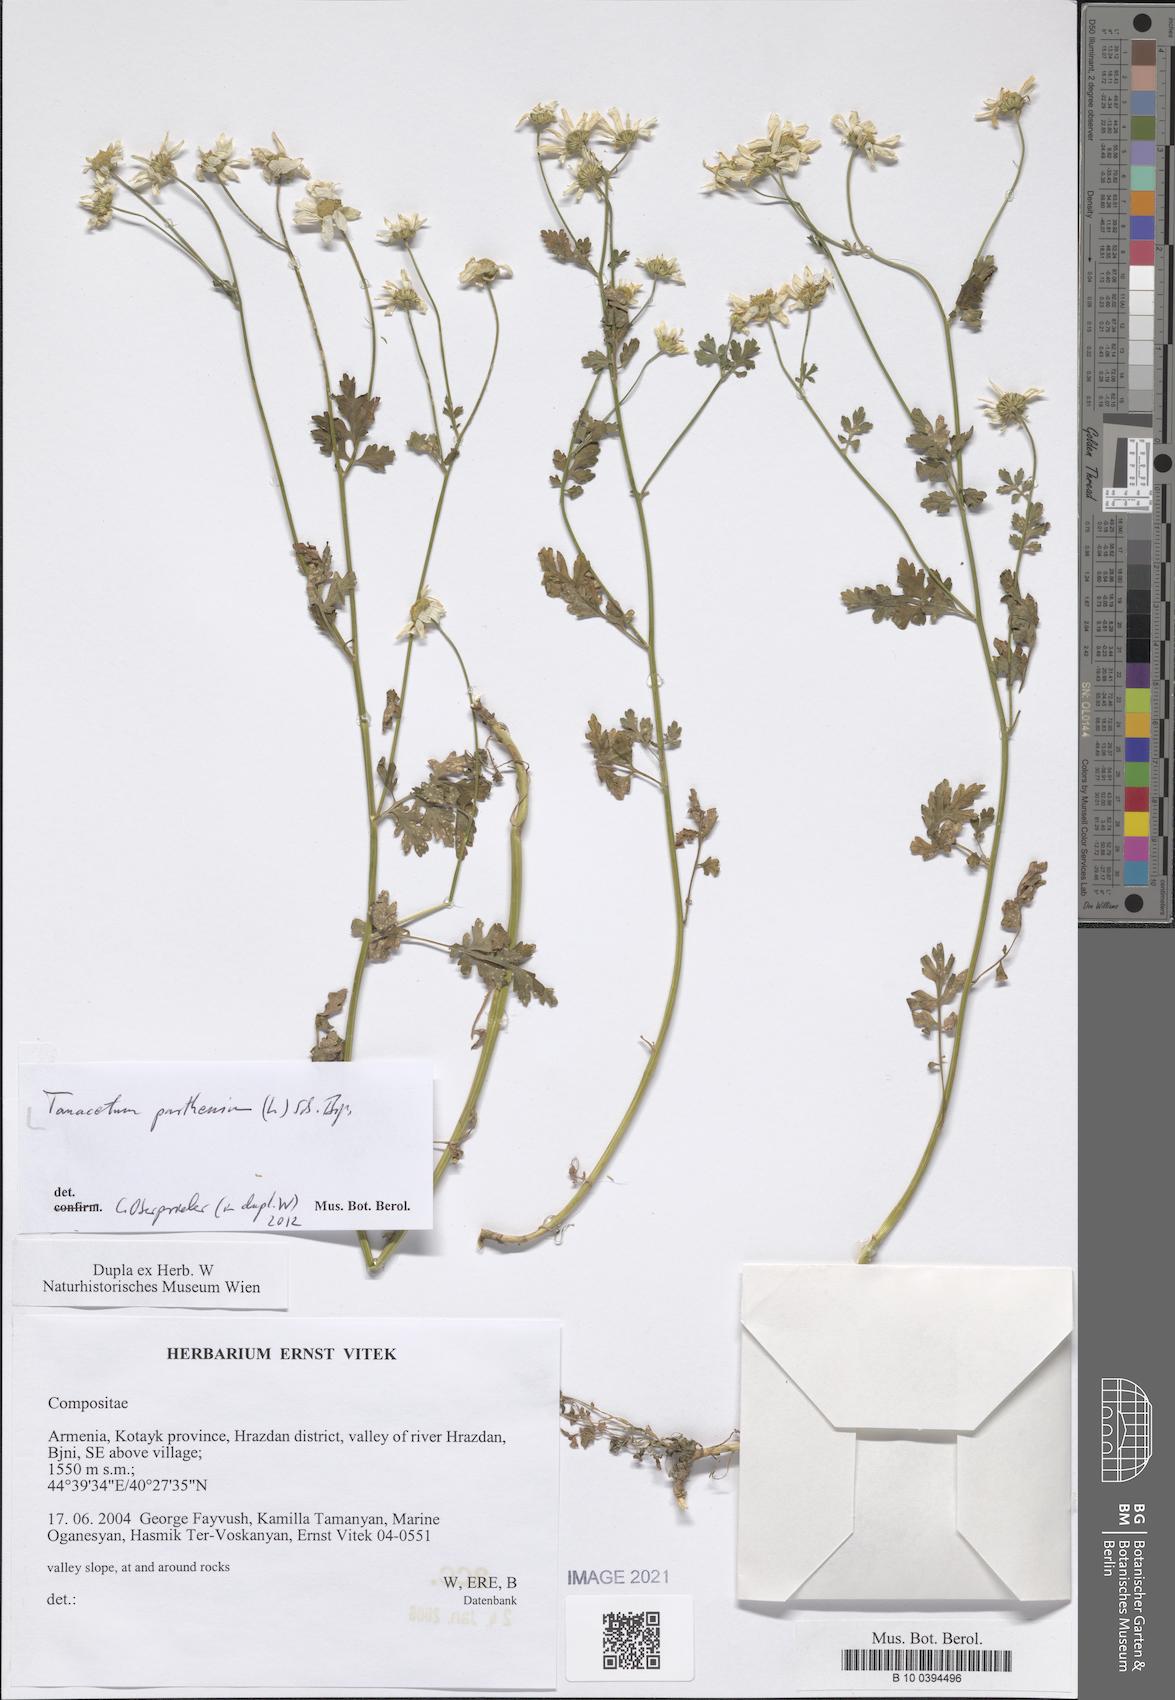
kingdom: Plantae
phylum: Tracheophyta
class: Magnoliopsida
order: Asterales
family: Asteraceae
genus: Tanacetum
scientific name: Tanacetum parthenium
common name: Feverfew
